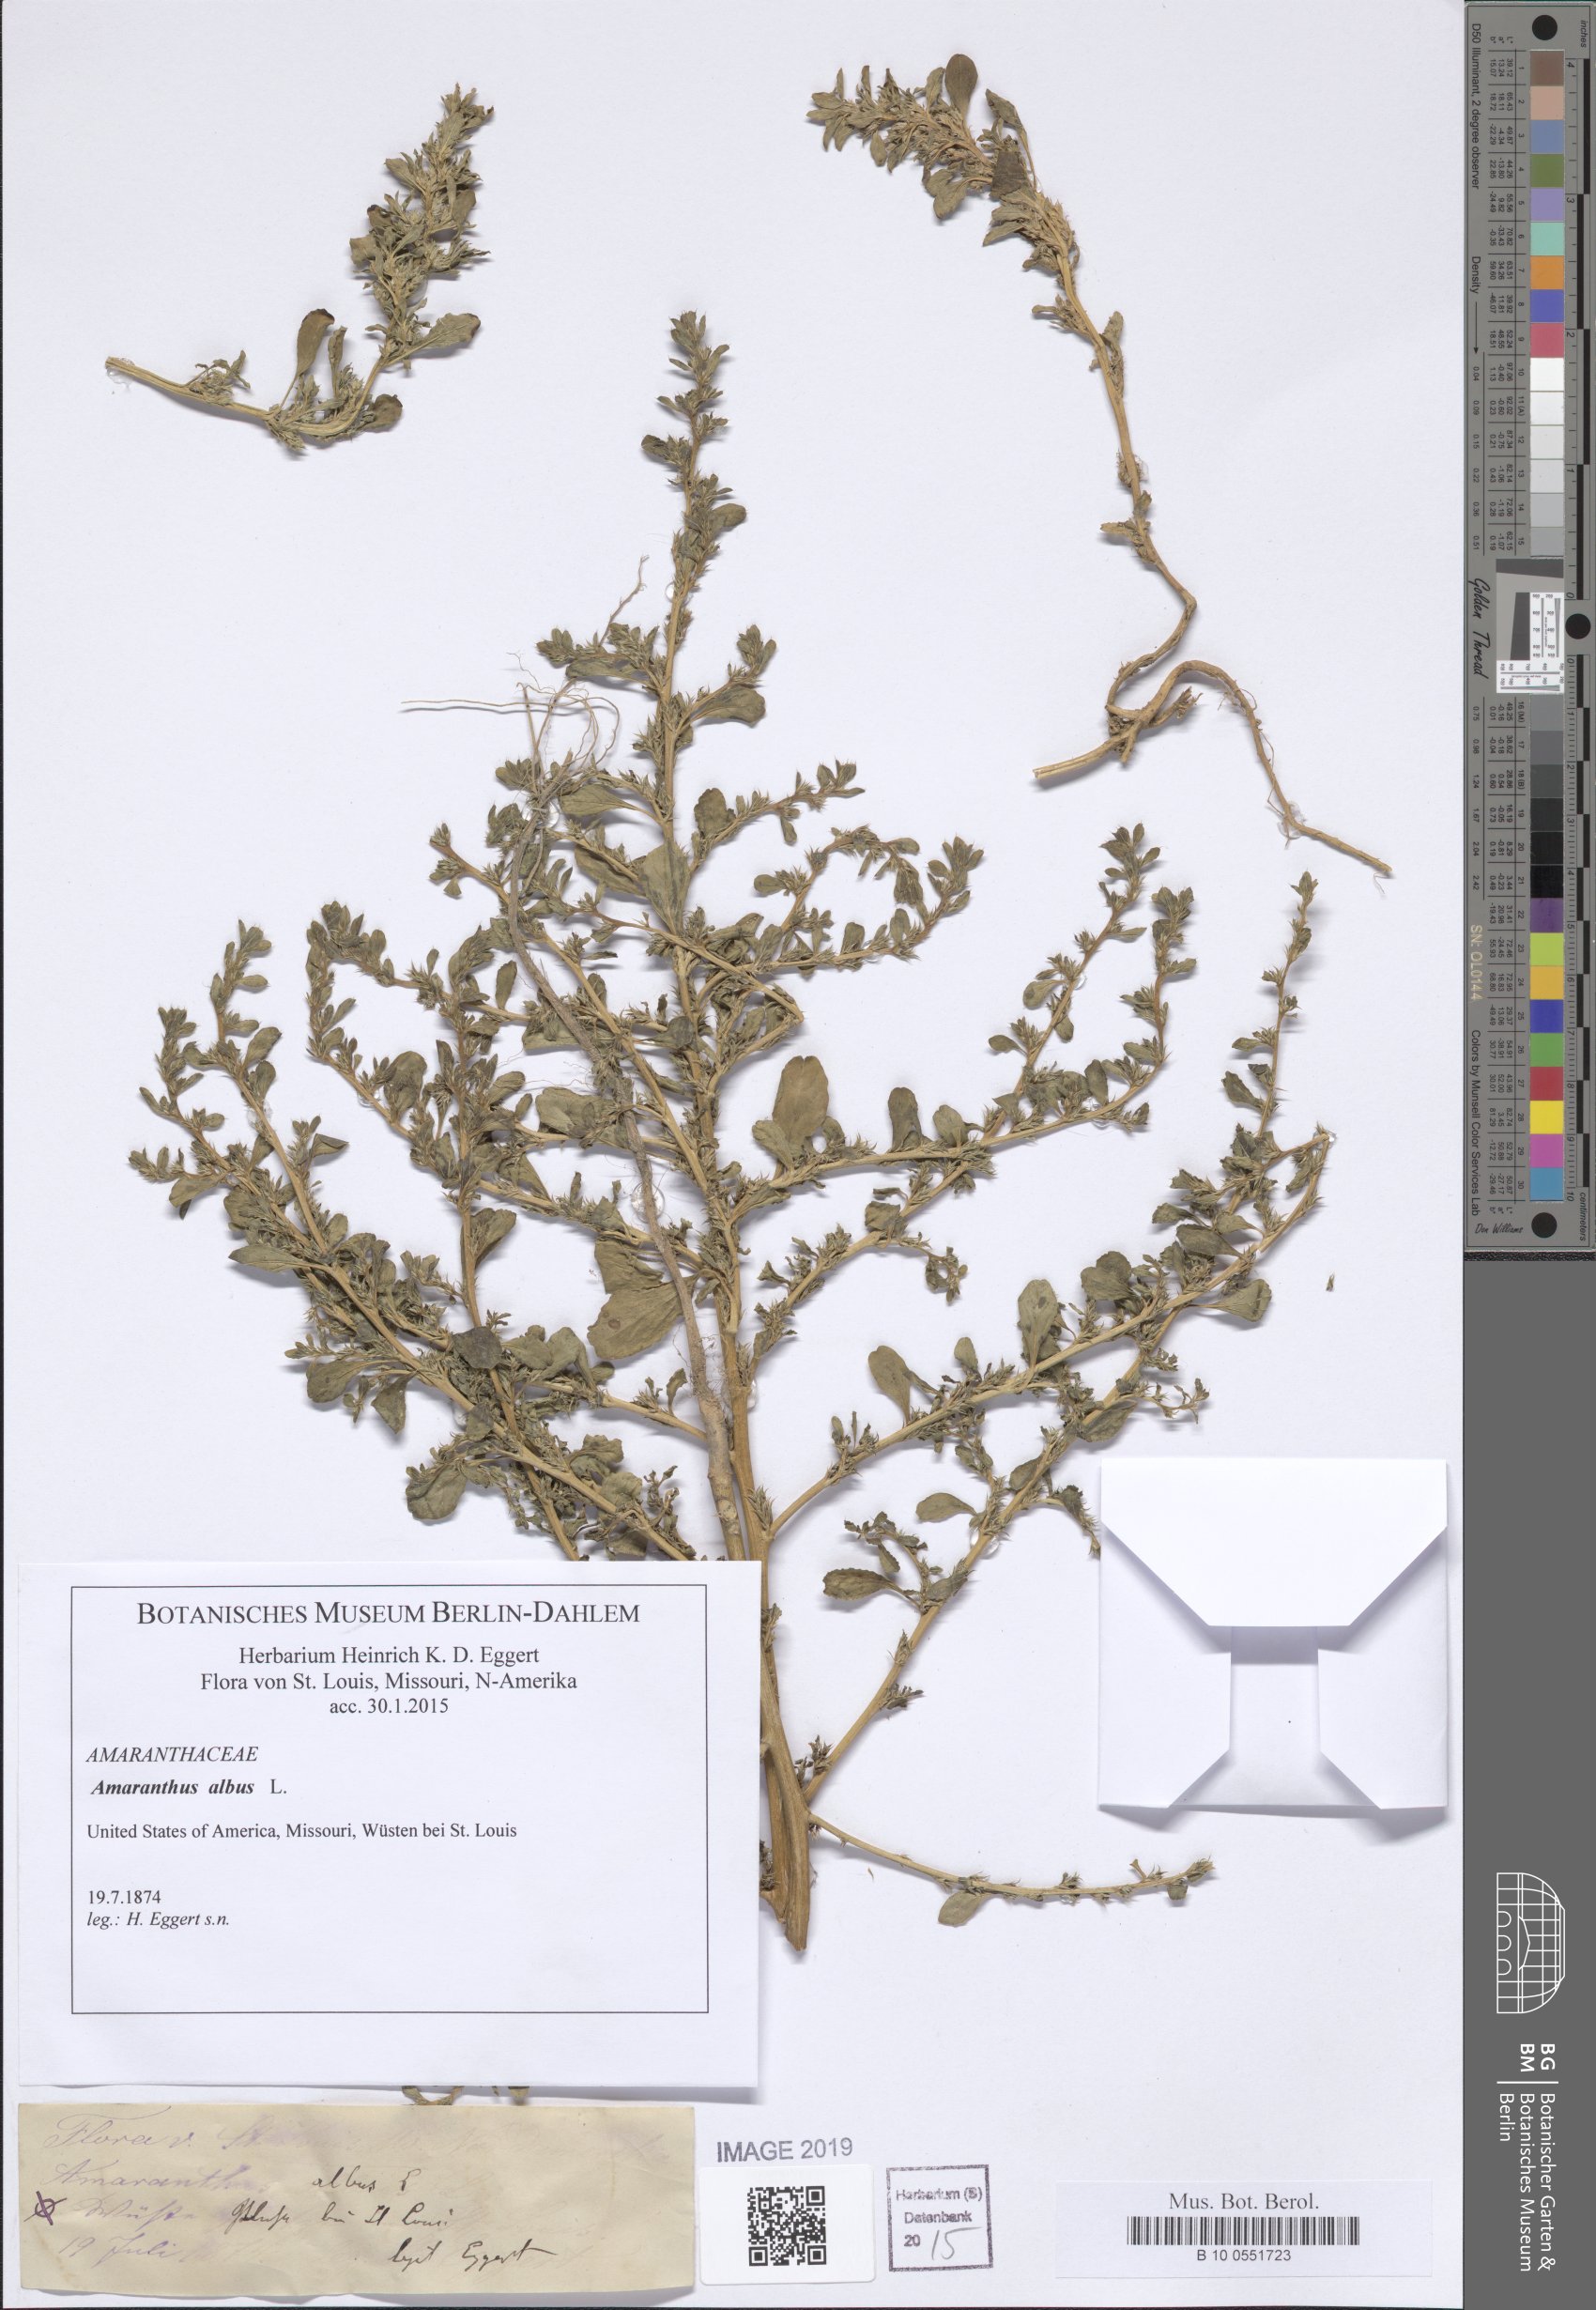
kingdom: Plantae
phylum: Tracheophyta
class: Magnoliopsida
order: Caryophyllales
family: Amaranthaceae
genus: Amaranthus
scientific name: Amaranthus albus
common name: White pigweed
